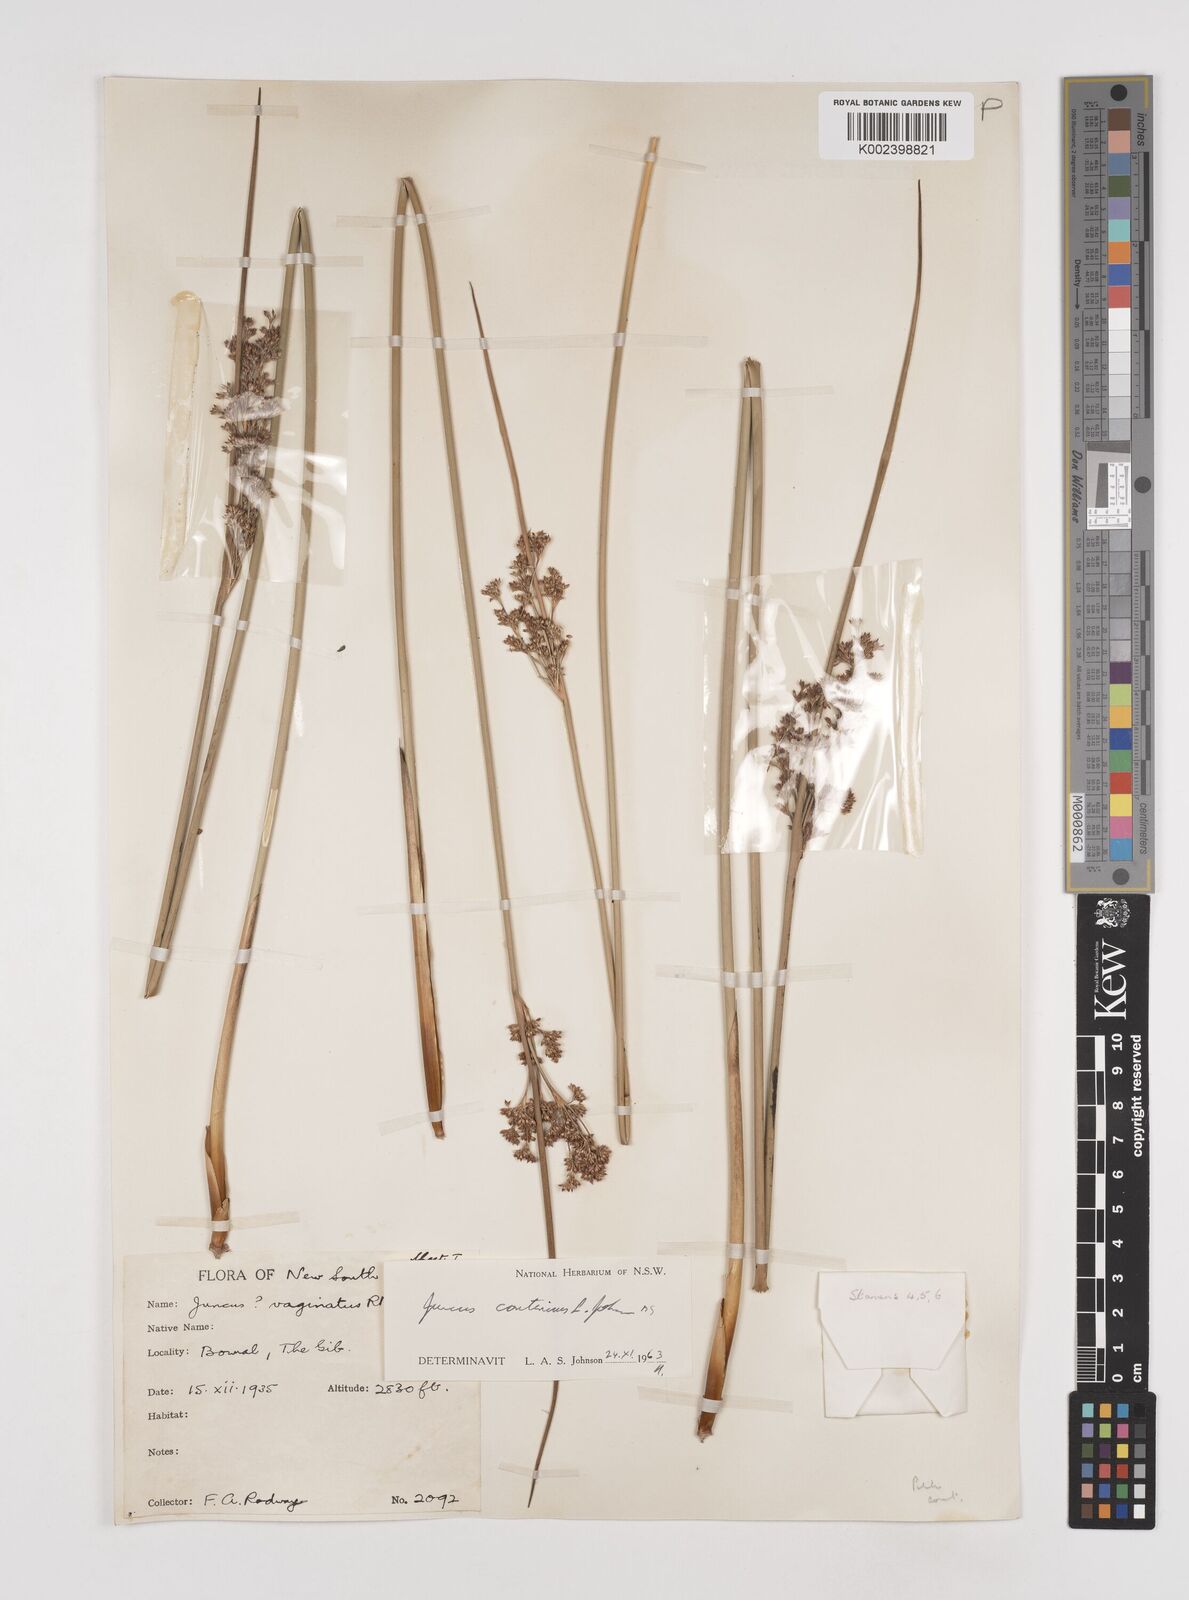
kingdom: Plantae
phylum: Tracheophyta
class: Liliopsida
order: Poales
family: Juncaceae
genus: Juncus
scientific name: Juncus
